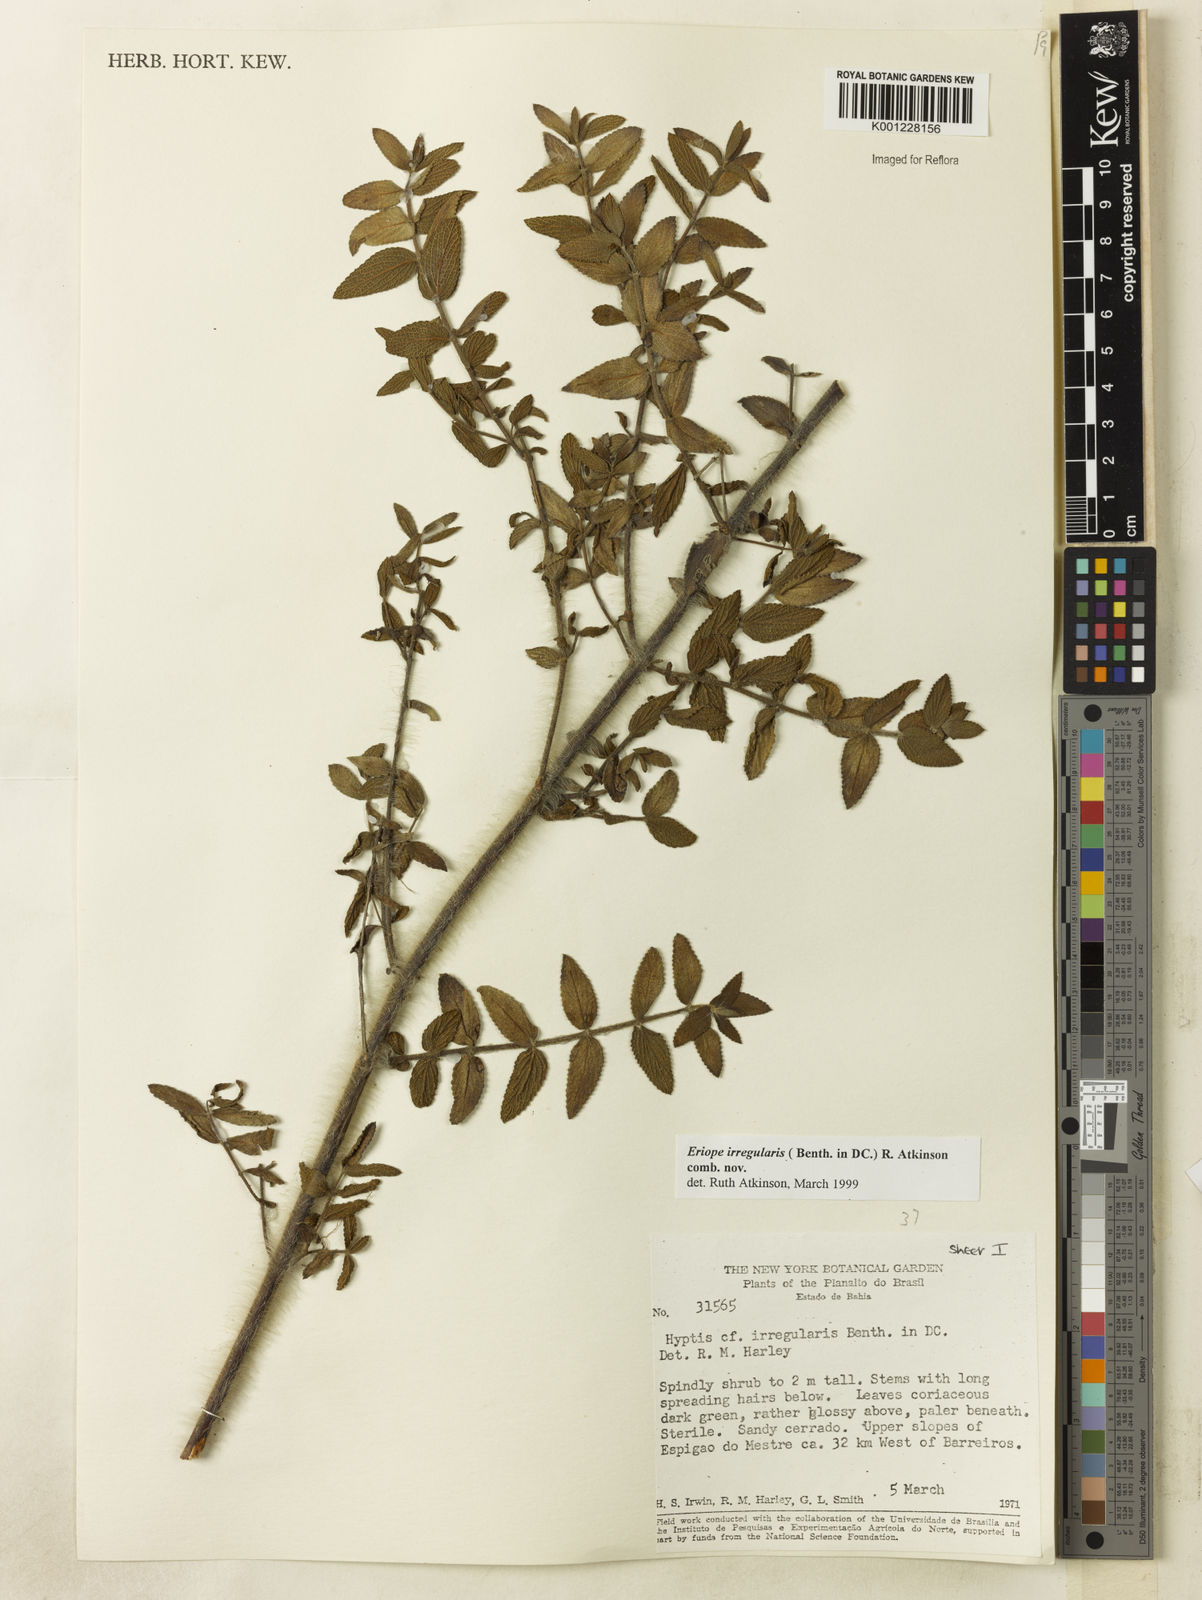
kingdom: Plantae
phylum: Tracheophyta
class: Magnoliopsida
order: Lamiales
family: Lamiaceae
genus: Hypenia
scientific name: Hypenia irregularis
